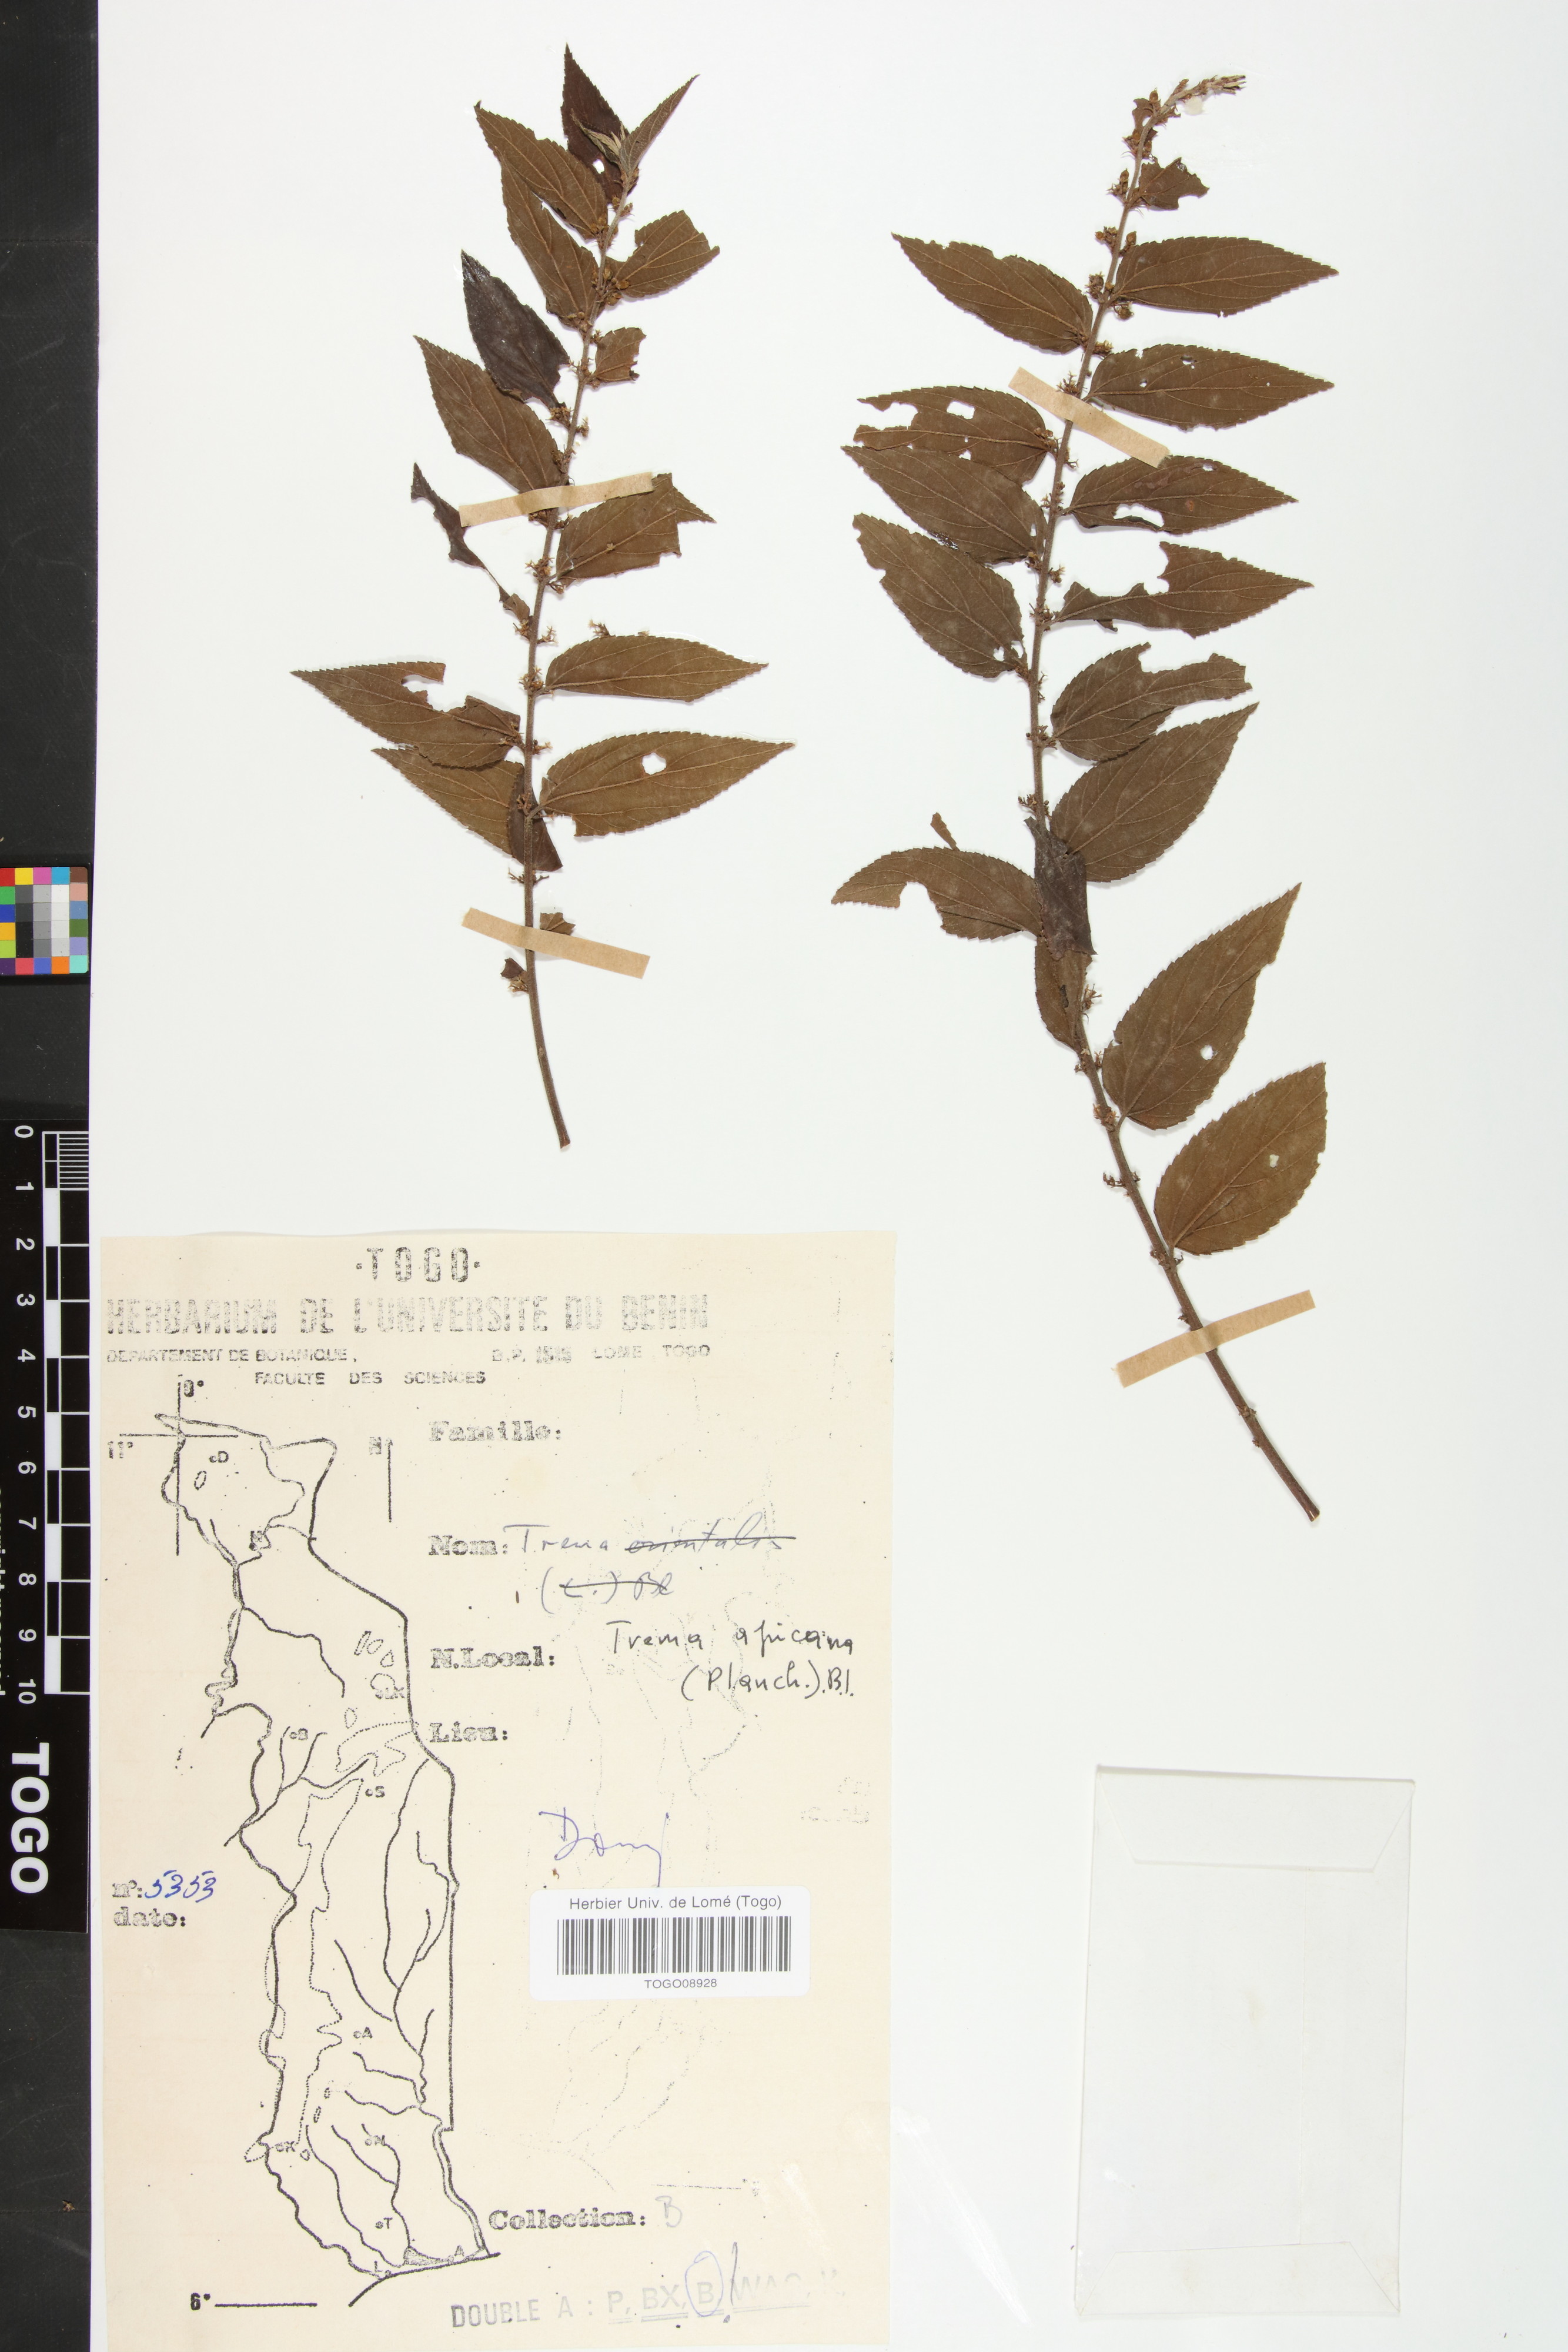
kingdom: Plantae
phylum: Tracheophyta
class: Magnoliopsida
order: Rosales
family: Cannabaceae
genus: Trema
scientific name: Trema orientale
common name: Indian charcoal tree
